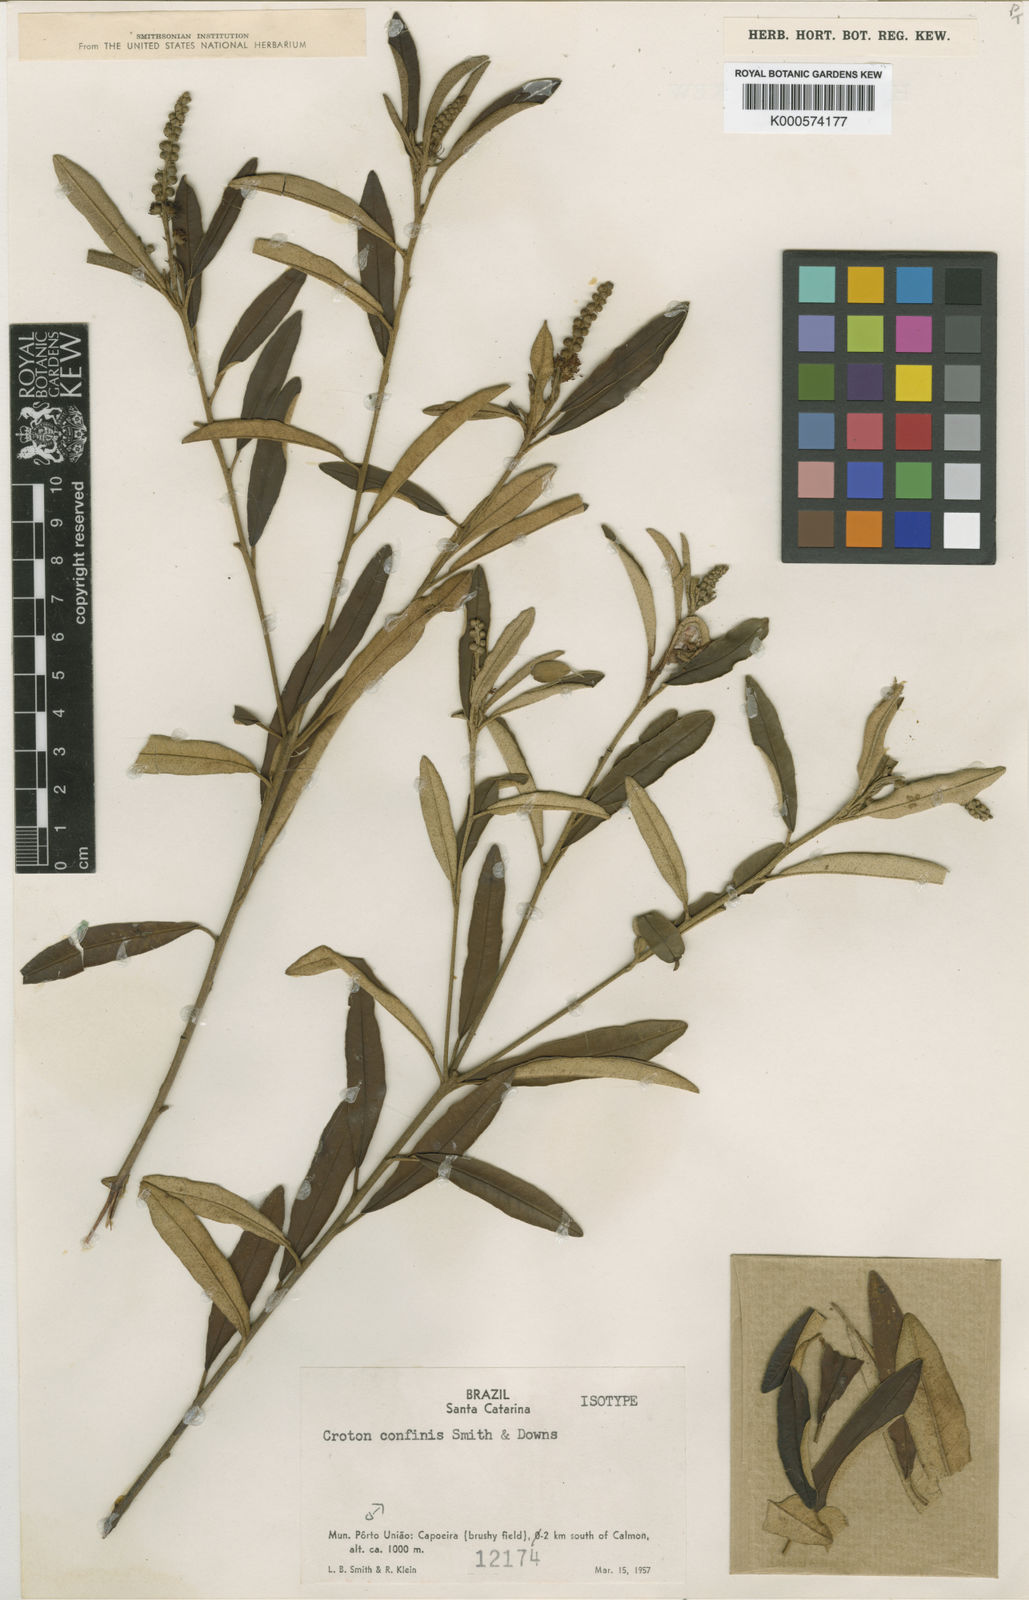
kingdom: Plantae
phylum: Tracheophyta
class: Magnoliopsida
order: Malpighiales
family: Euphorbiaceae
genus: Croton
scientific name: Croton confinis
